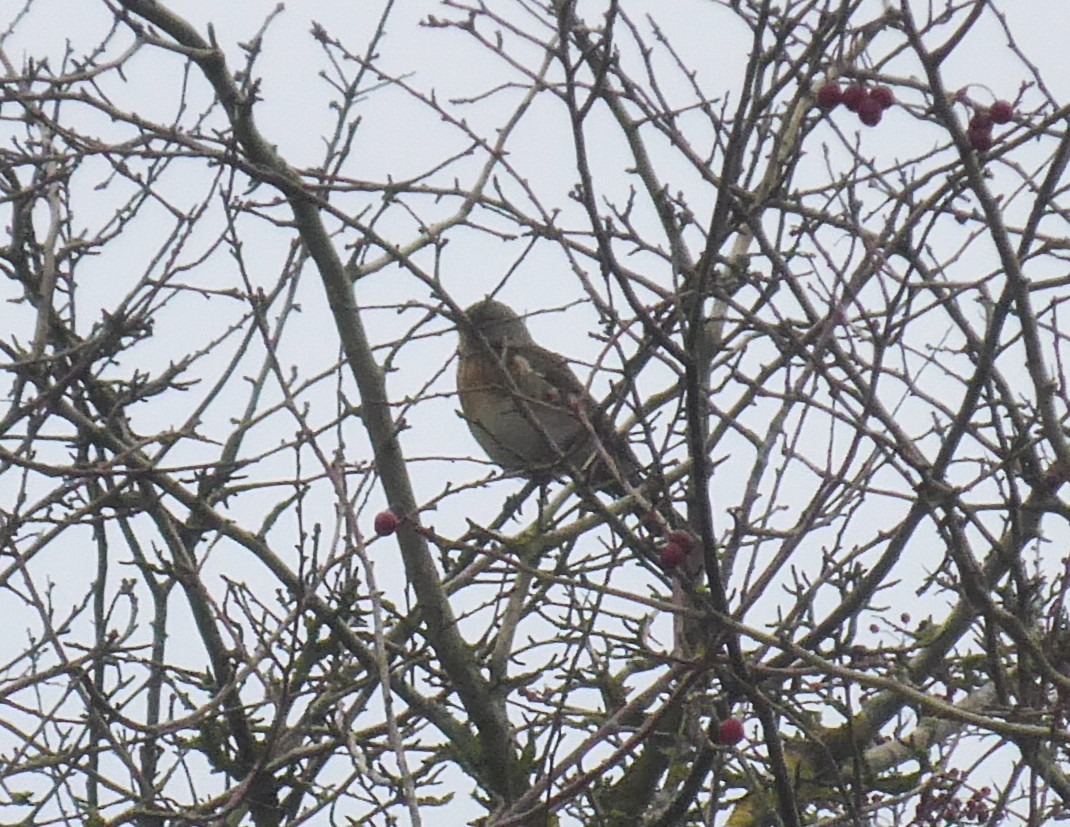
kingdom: Animalia
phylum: Chordata
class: Aves
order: Passeriformes
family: Turdidae
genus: Turdus
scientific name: Turdus pilaris
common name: Sjagger
